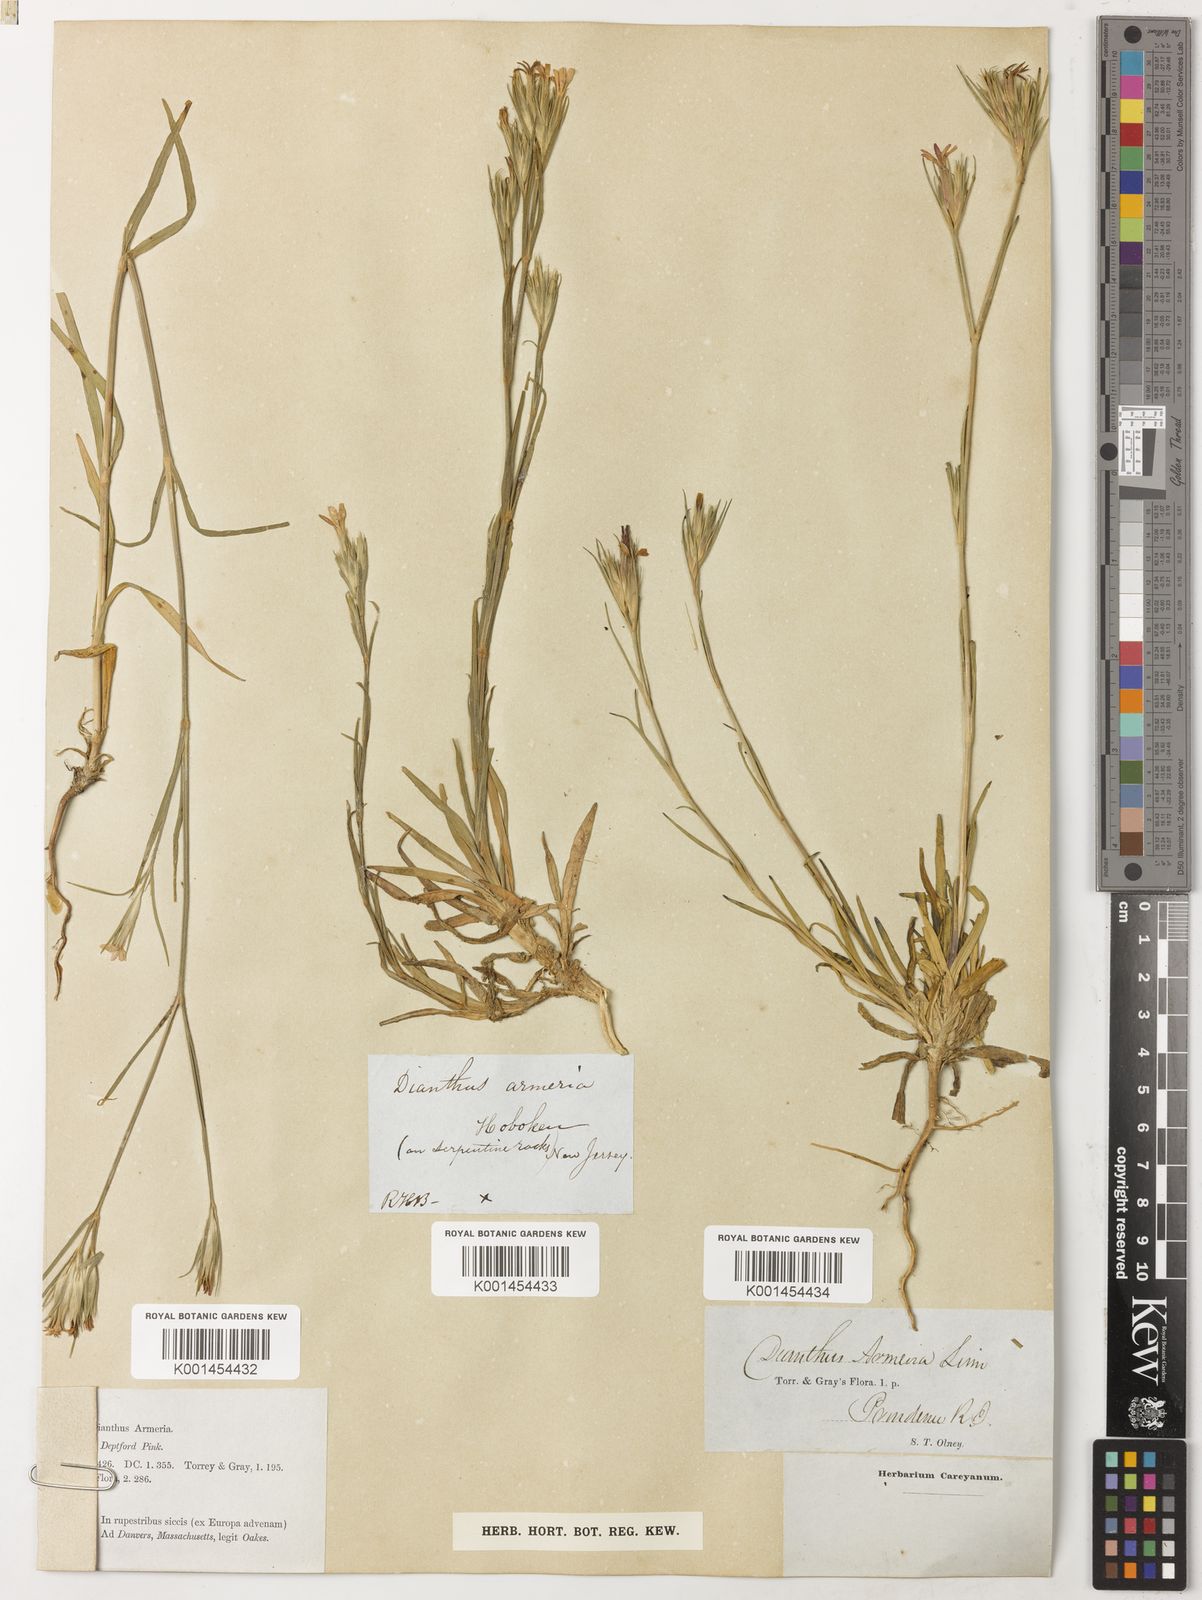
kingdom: Plantae
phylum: Tracheophyta
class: Magnoliopsida
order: Caryophyllales
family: Caryophyllaceae
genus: Dianthus
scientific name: Dianthus armeria
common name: Deptford pink
